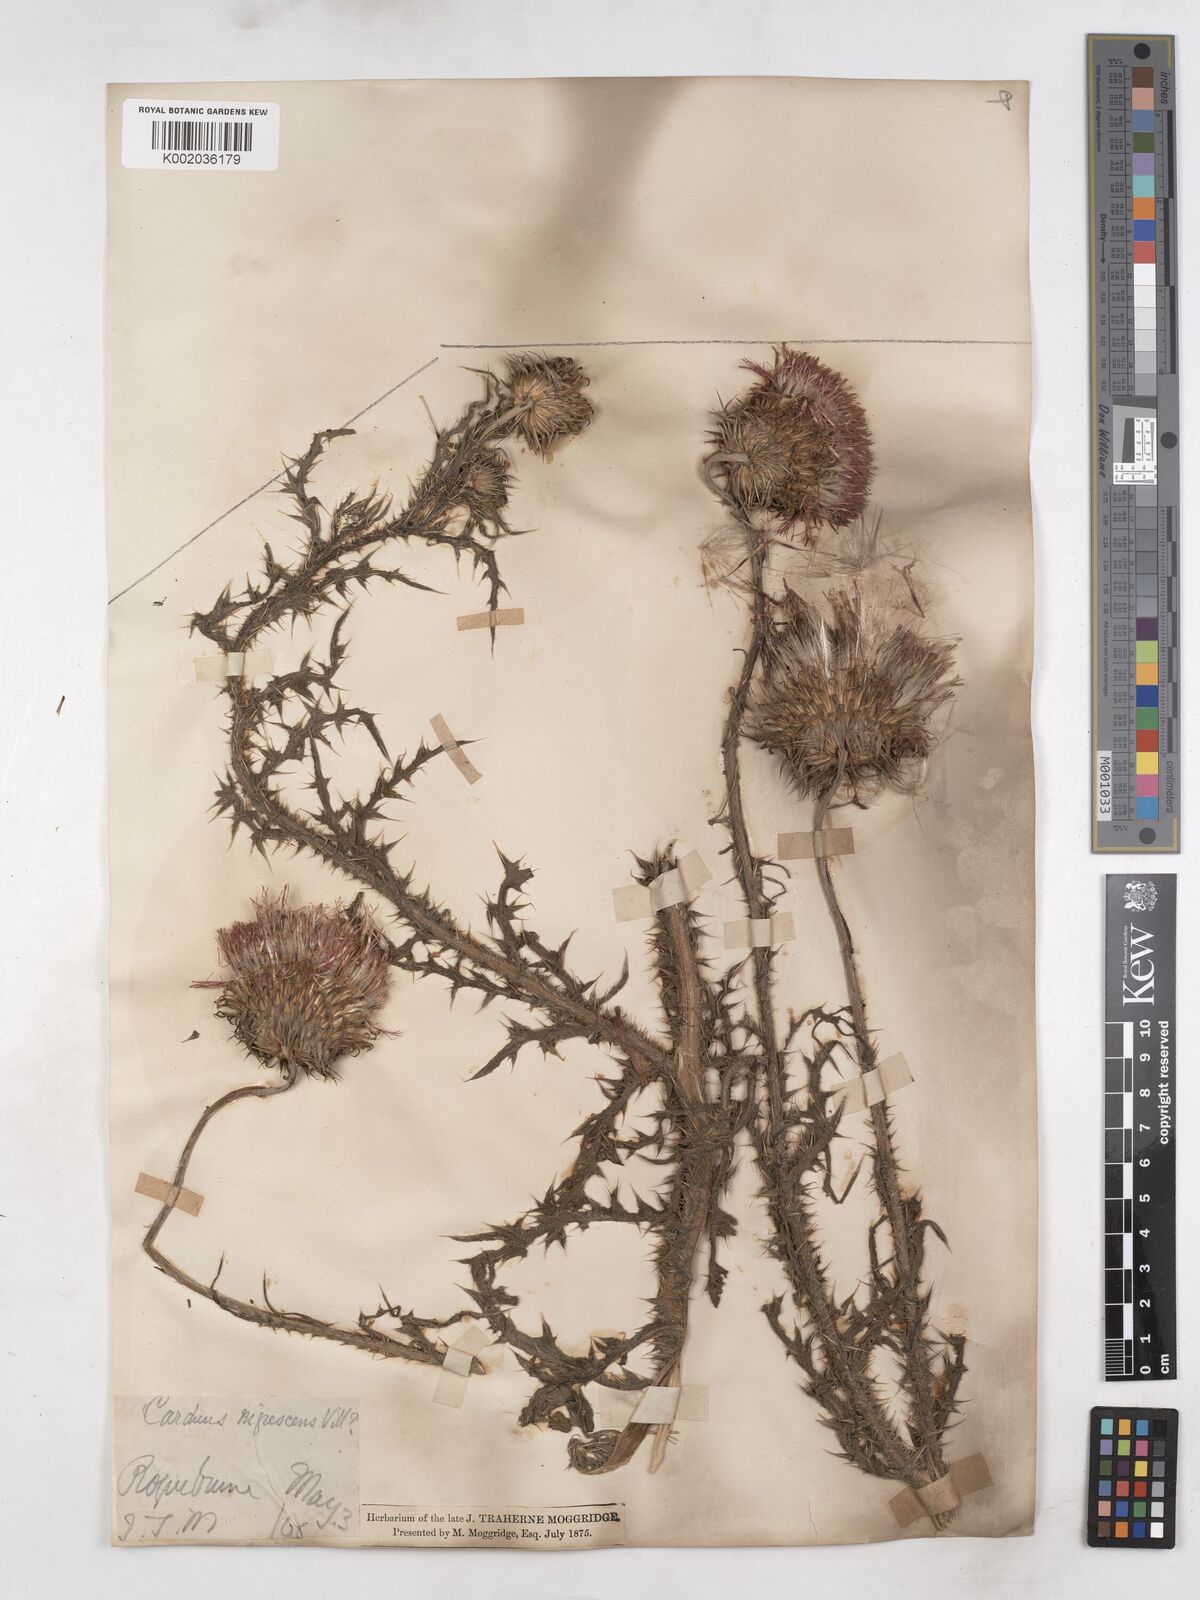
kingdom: Plantae
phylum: Tracheophyta
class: Magnoliopsida
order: Asterales
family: Asteraceae
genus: Carduus
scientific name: Carduus nigrescens
